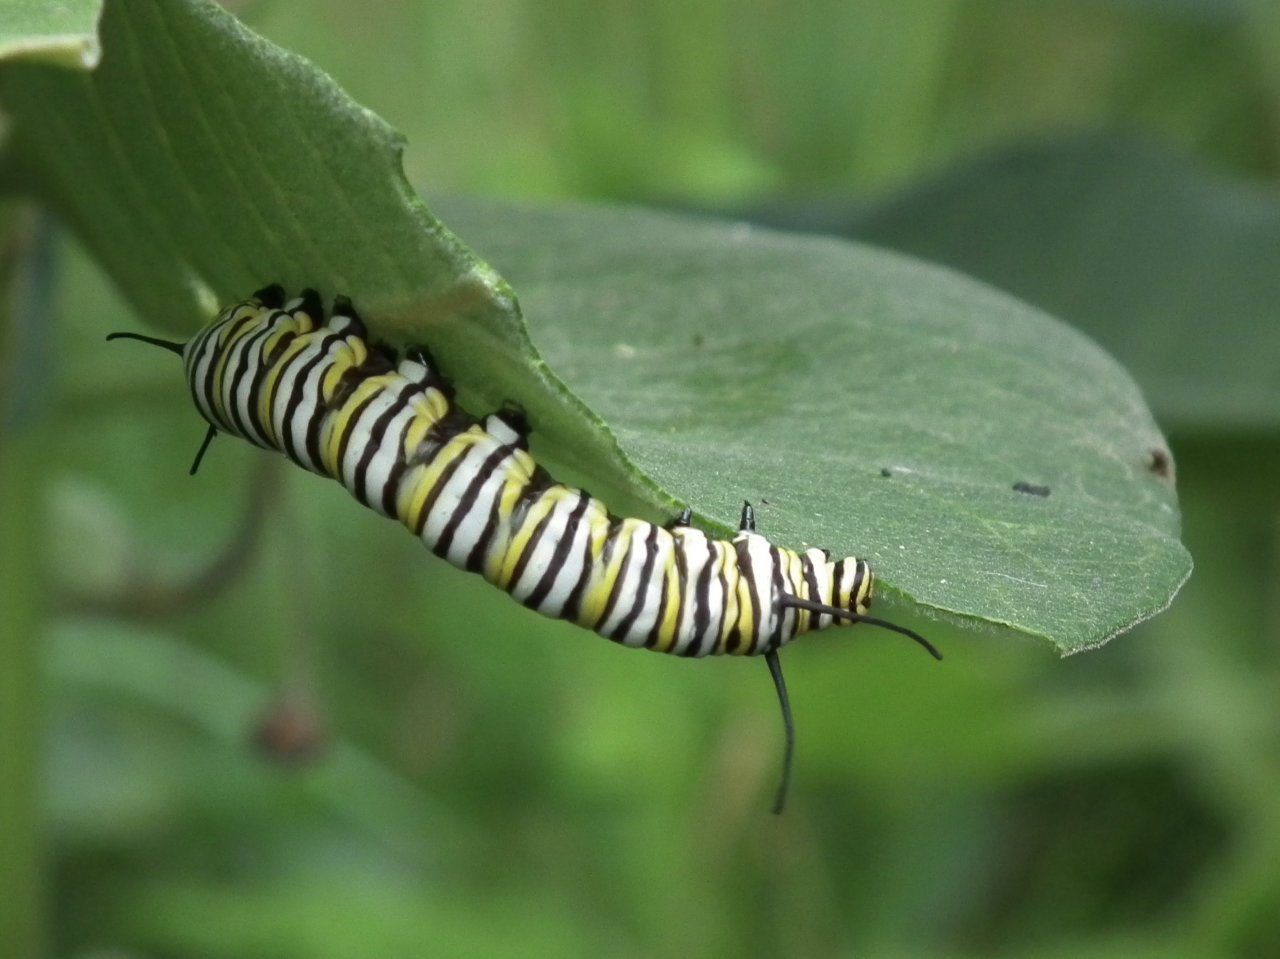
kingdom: Animalia
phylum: Arthropoda
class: Insecta
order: Lepidoptera
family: Nymphalidae
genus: Danaus
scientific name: Danaus plexippus
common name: Monarch
